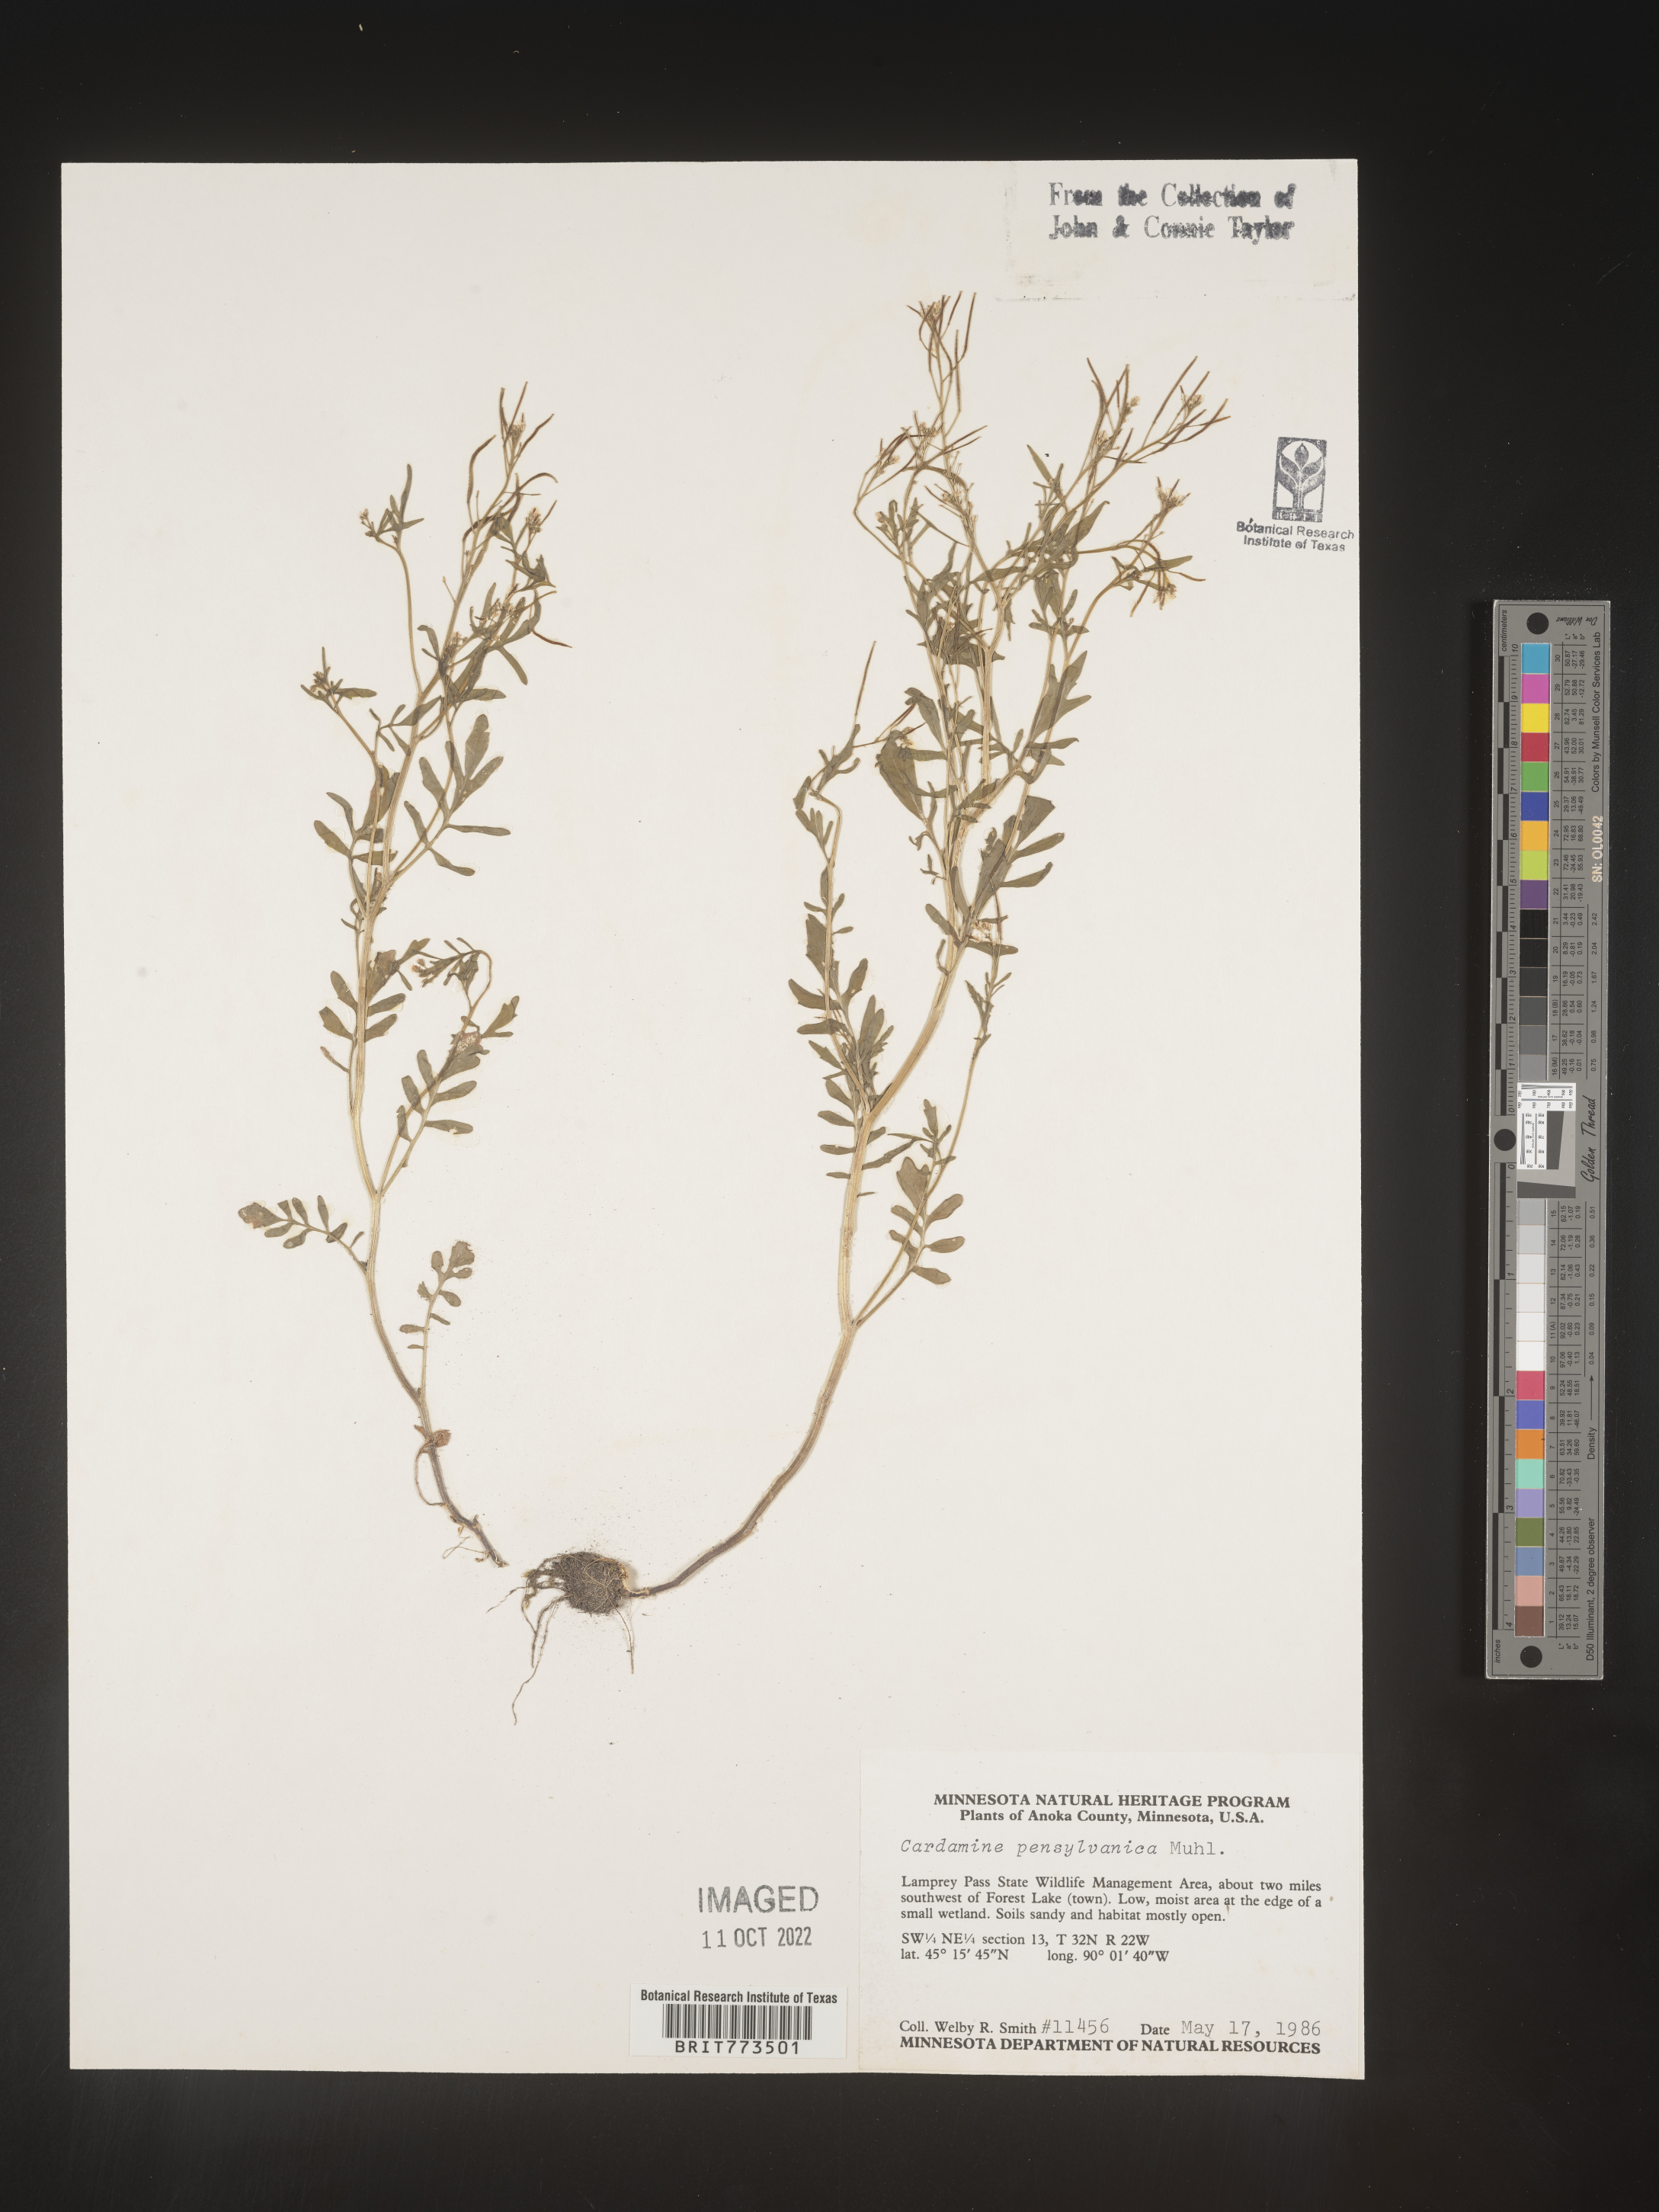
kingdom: Plantae
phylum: Tracheophyta
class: Magnoliopsida
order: Brassicales
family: Brassicaceae
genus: Cardamine
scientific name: Cardamine pensylvanica
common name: Pennsylvania bittercress
